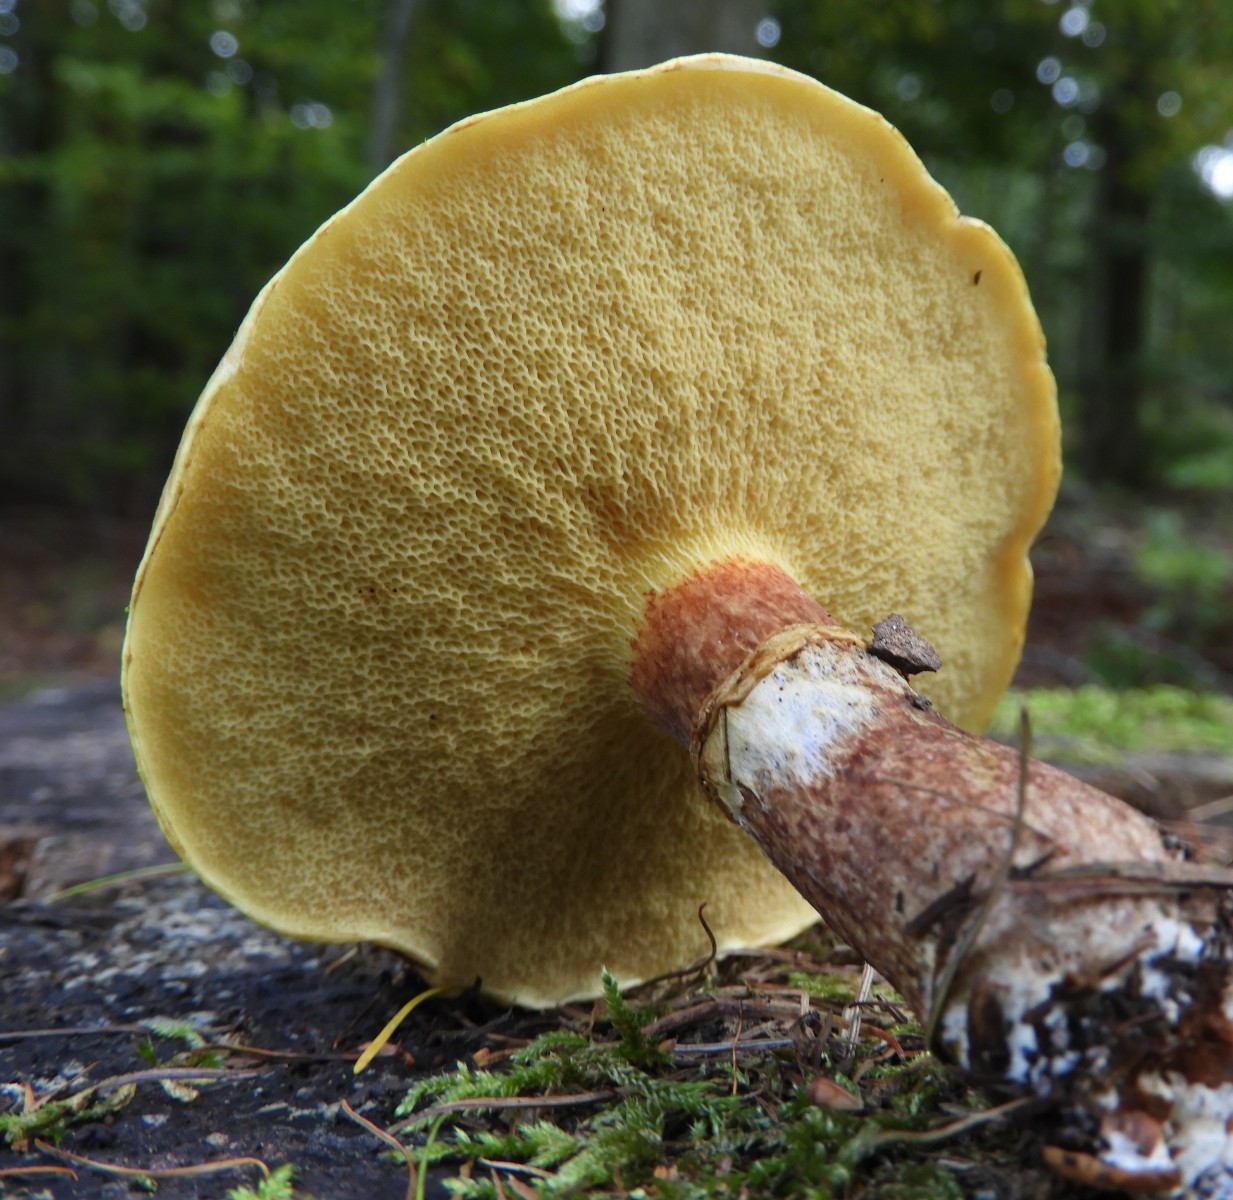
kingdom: Fungi
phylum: Basidiomycota
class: Agaricomycetes
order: Boletales
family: Suillaceae
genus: Suillus
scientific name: Suillus grevillei
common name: lærke-slimrørhat
